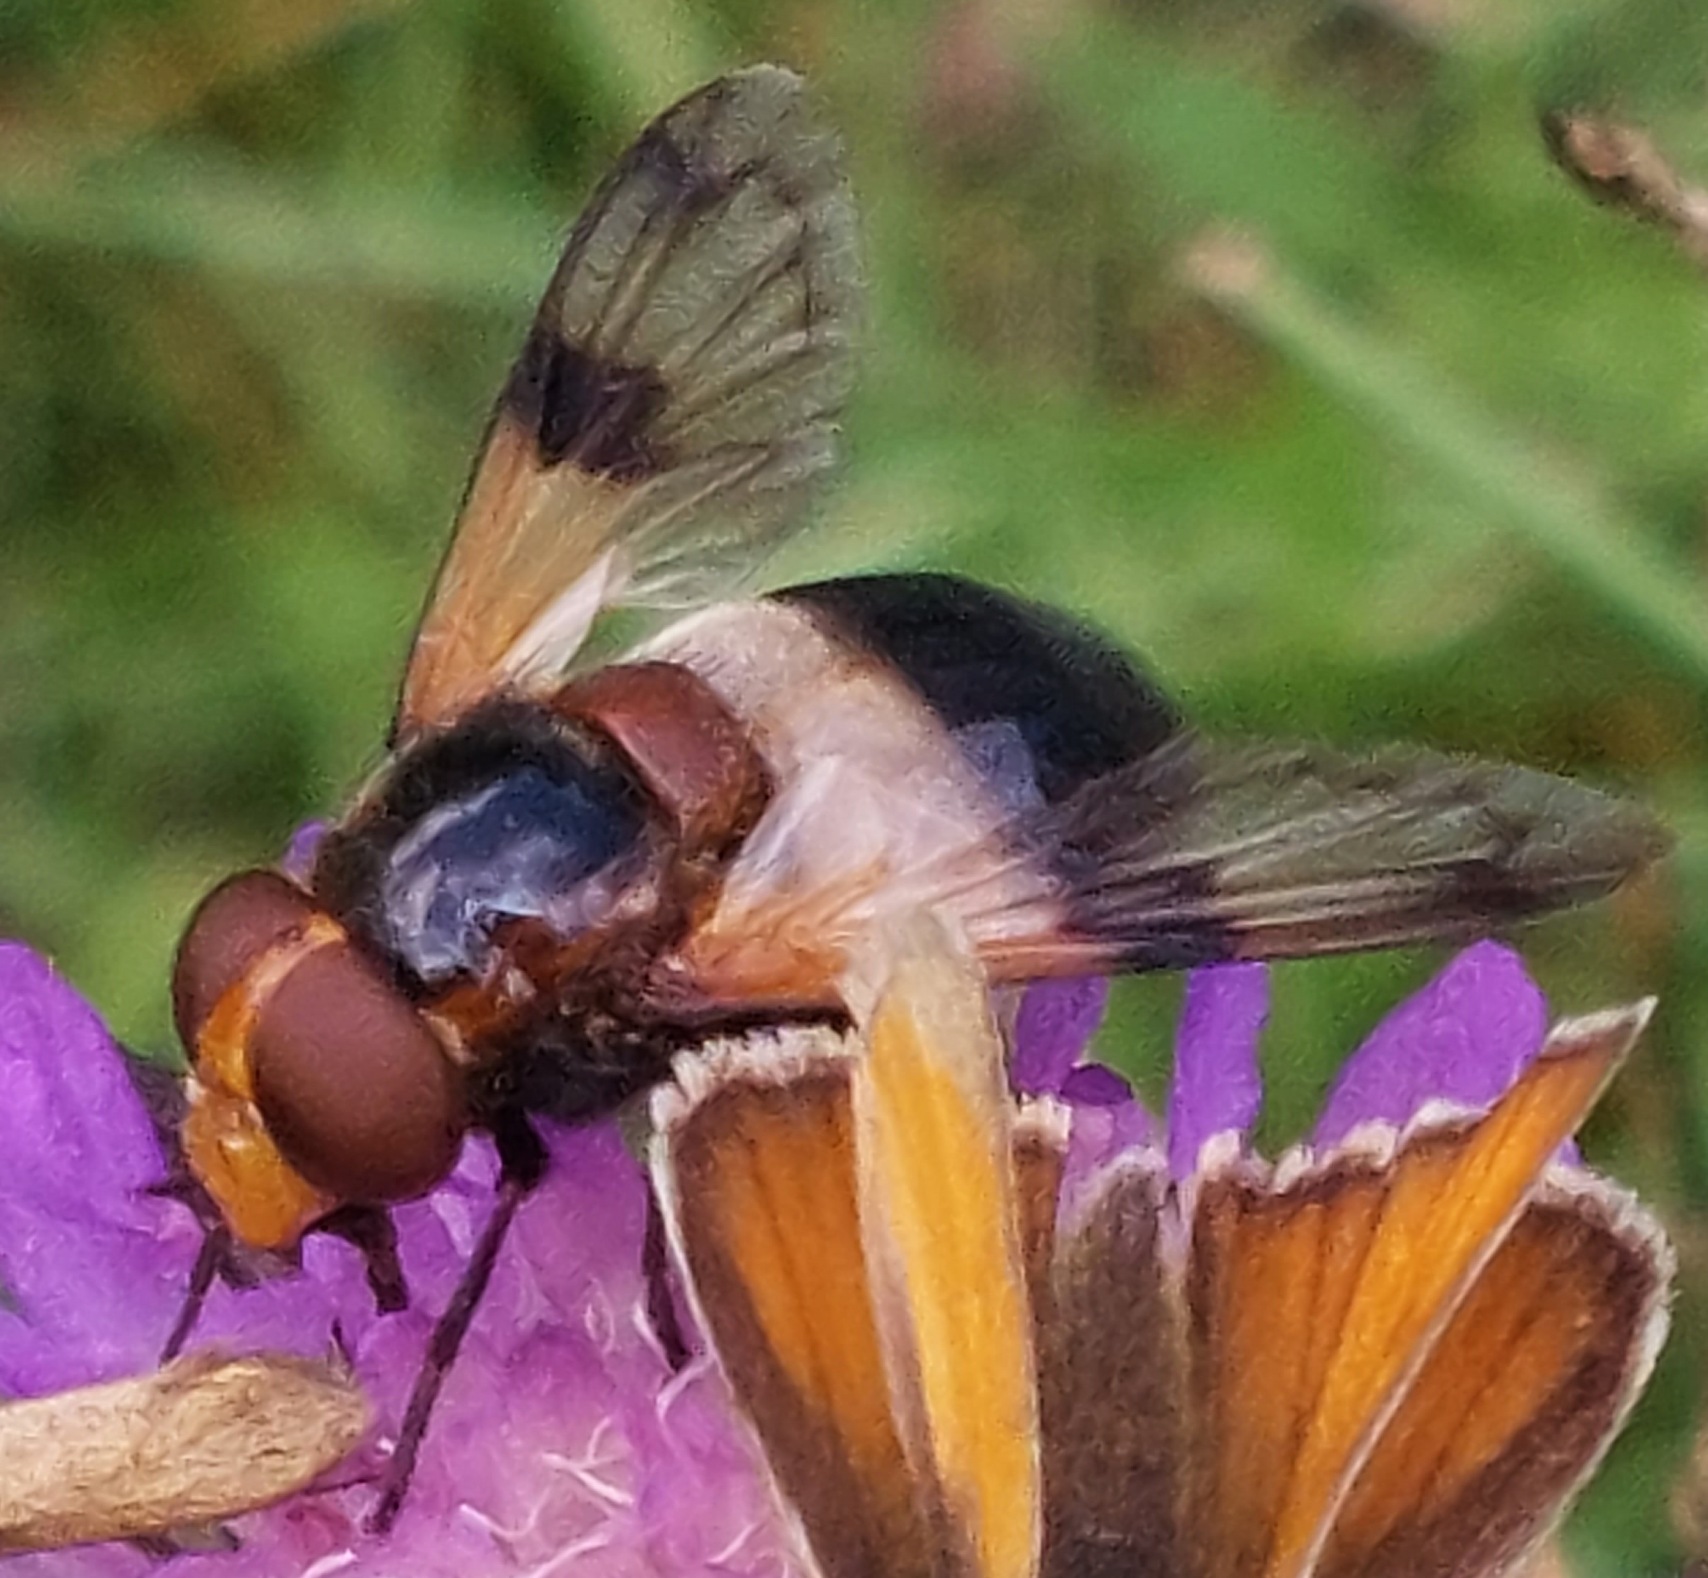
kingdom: Animalia
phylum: Arthropoda
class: Insecta
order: Diptera
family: Syrphidae
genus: Volucella
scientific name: Volucella pellucens
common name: Hvidbåndet humlesvirreflue
